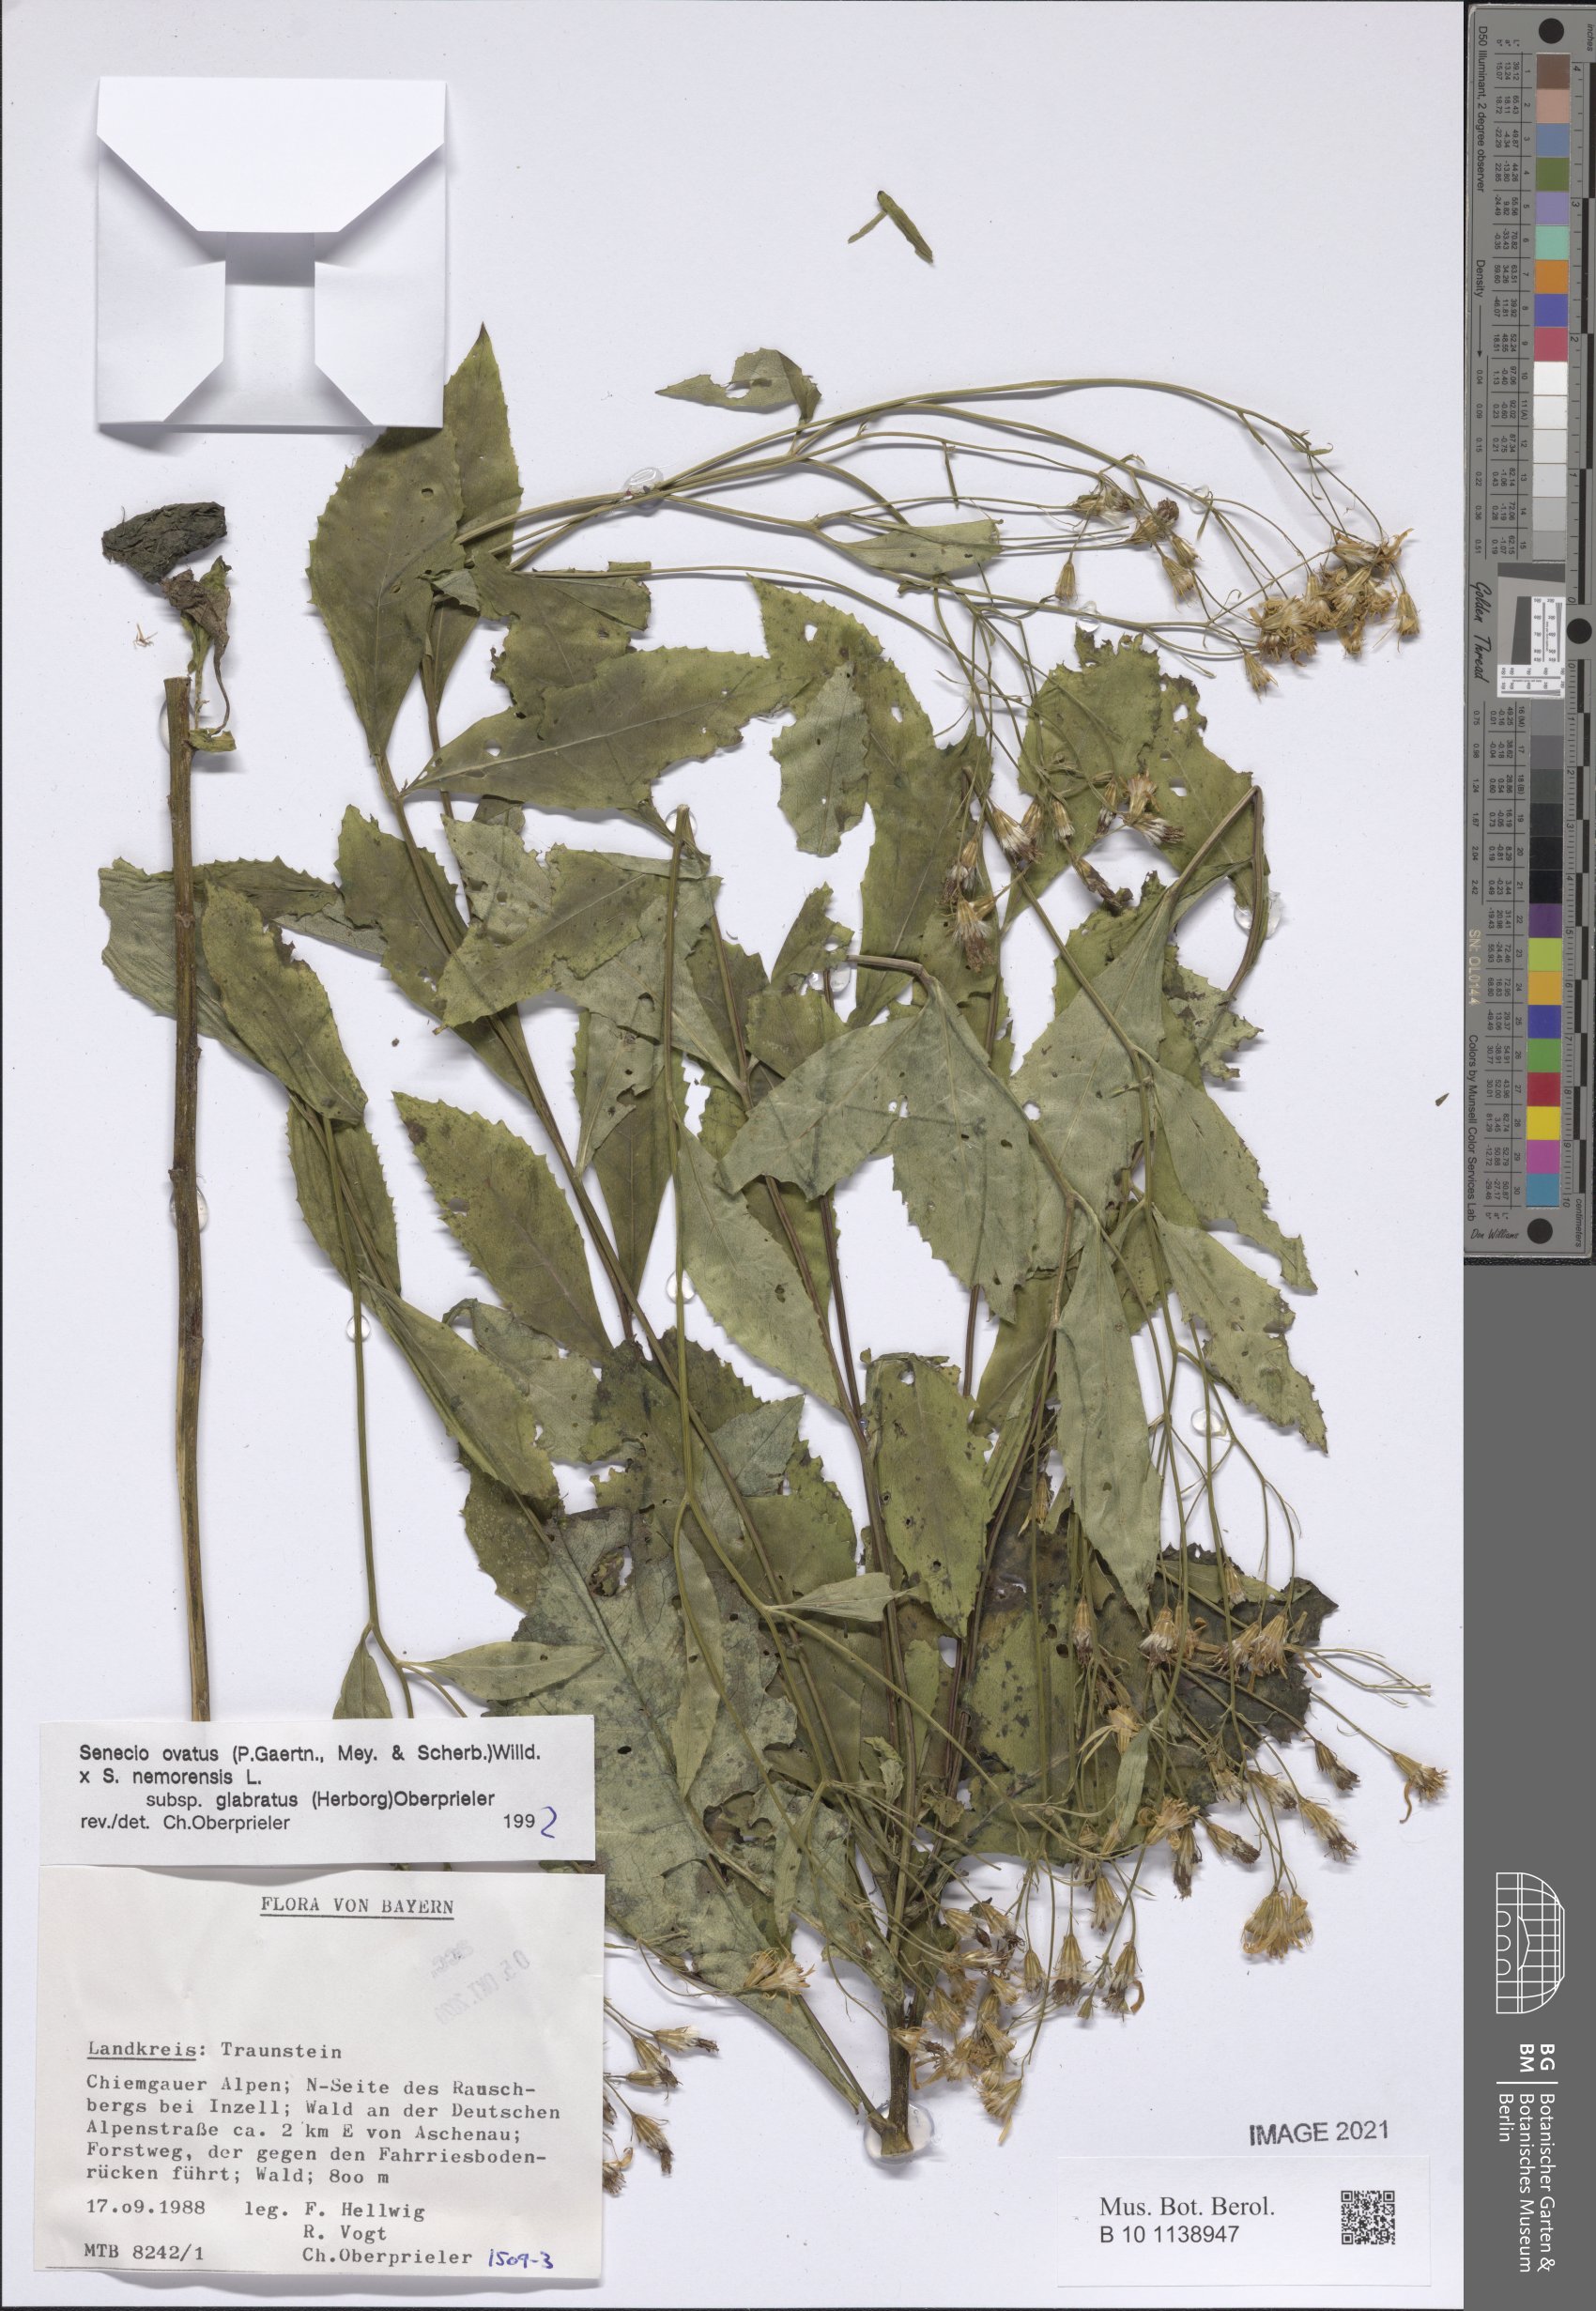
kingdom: Plantae
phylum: Tracheophyta
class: Magnoliopsida
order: Asterales
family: Asteraceae
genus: Senecio
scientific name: Senecio ovatus
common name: Wood ragwort
